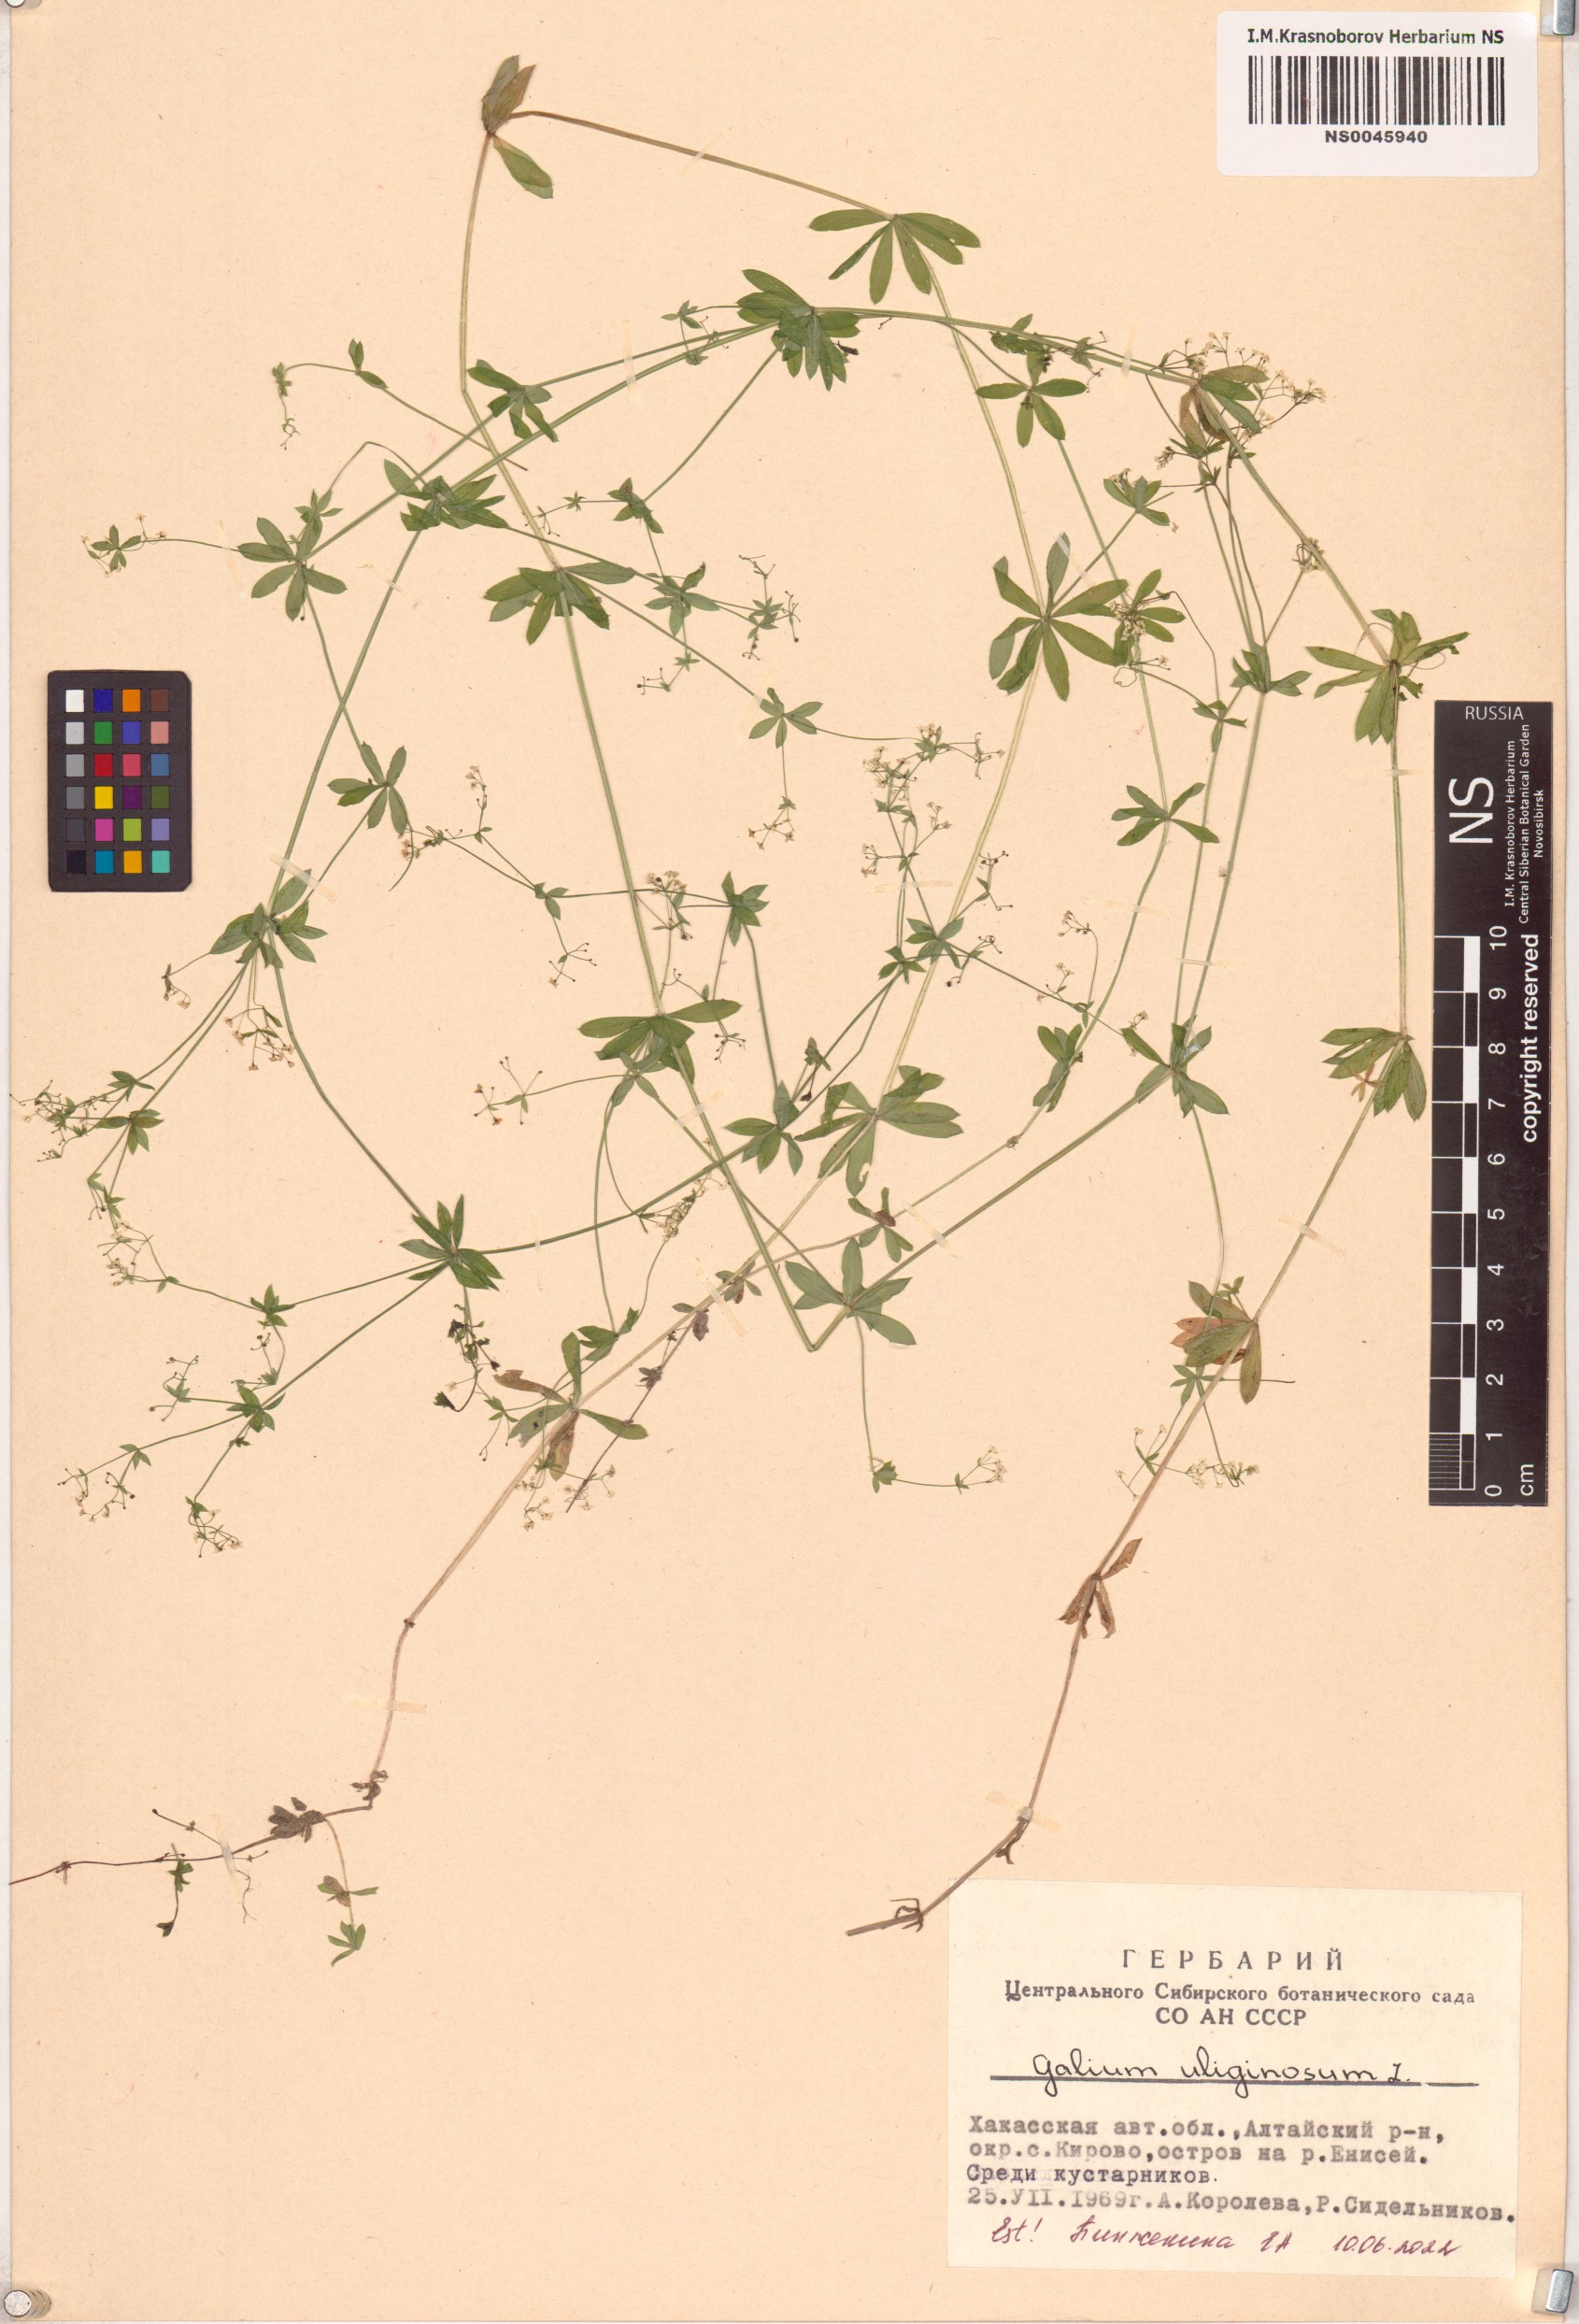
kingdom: Plantae
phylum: Tracheophyta
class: Magnoliopsida
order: Gentianales
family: Rubiaceae
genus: Galium
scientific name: Galium uliginosum
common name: Fen bedstraw
